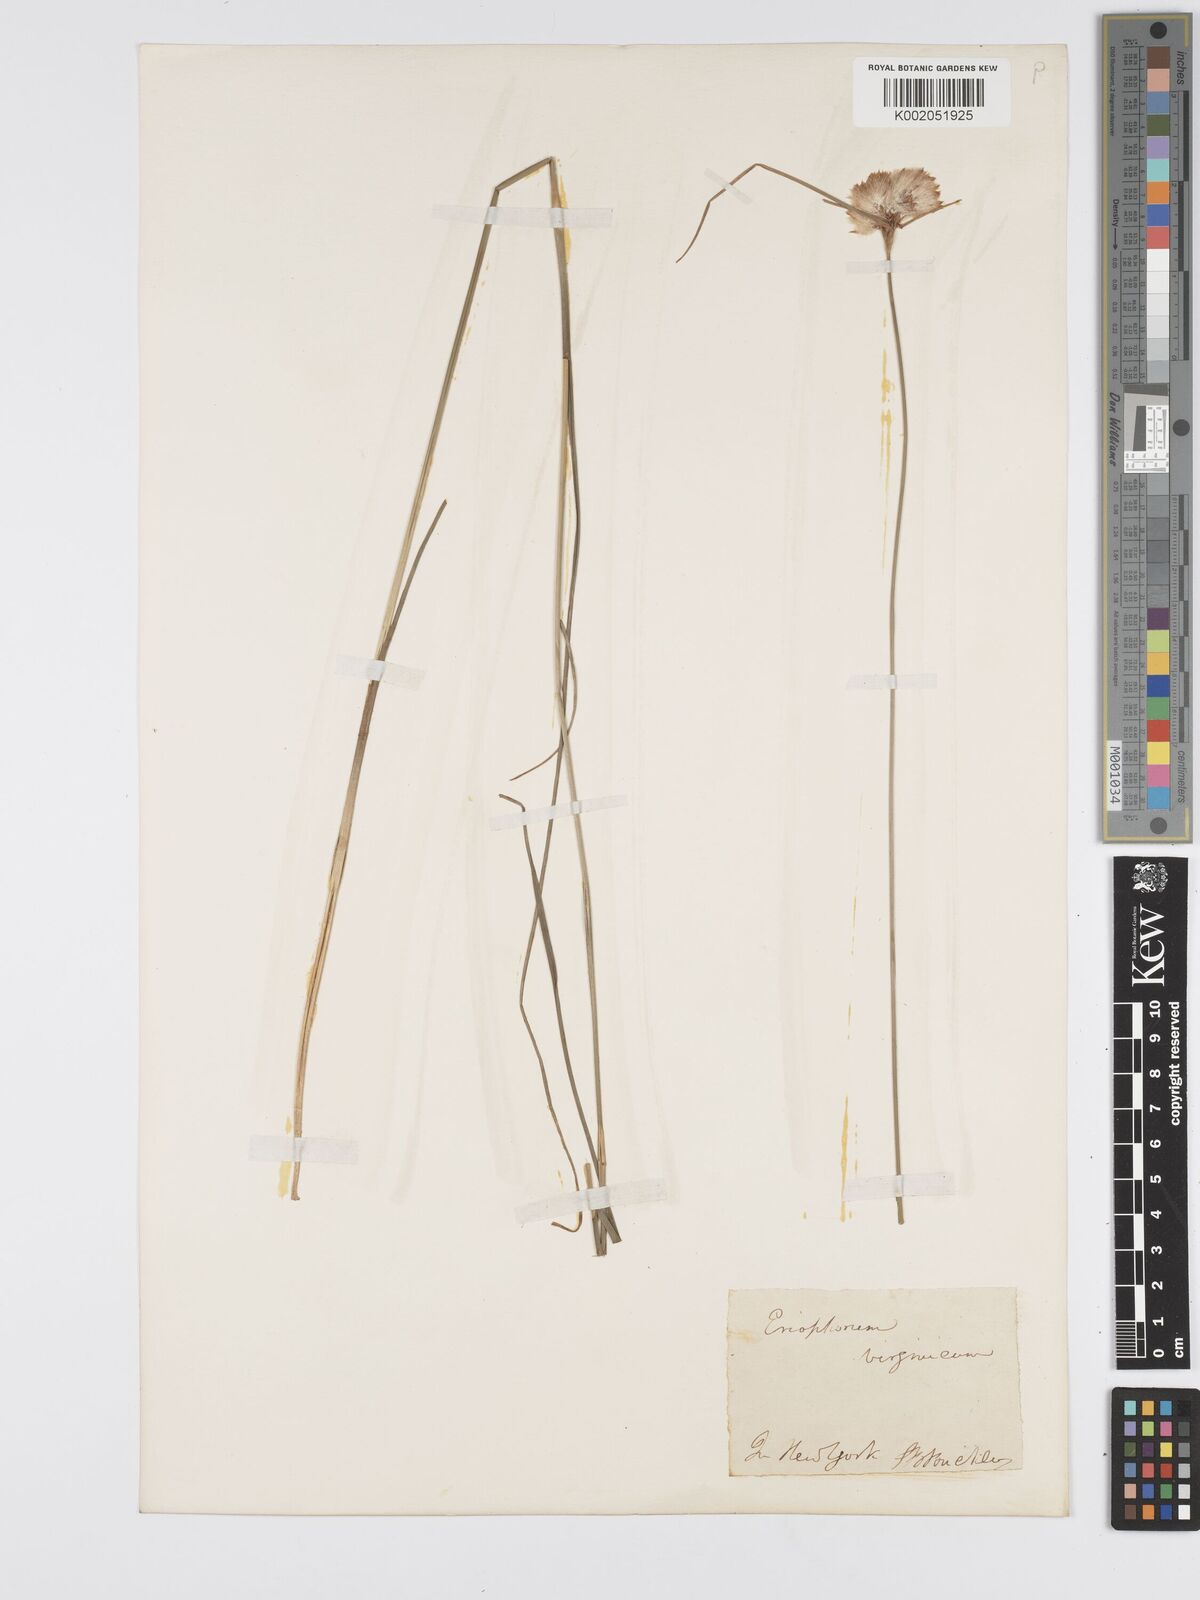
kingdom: Plantae
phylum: Tracheophyta
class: Liliopsida
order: Poales
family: Cyperaceae
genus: Eriophorum
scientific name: Eriophorum virginicum
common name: Tawny cottongrass
